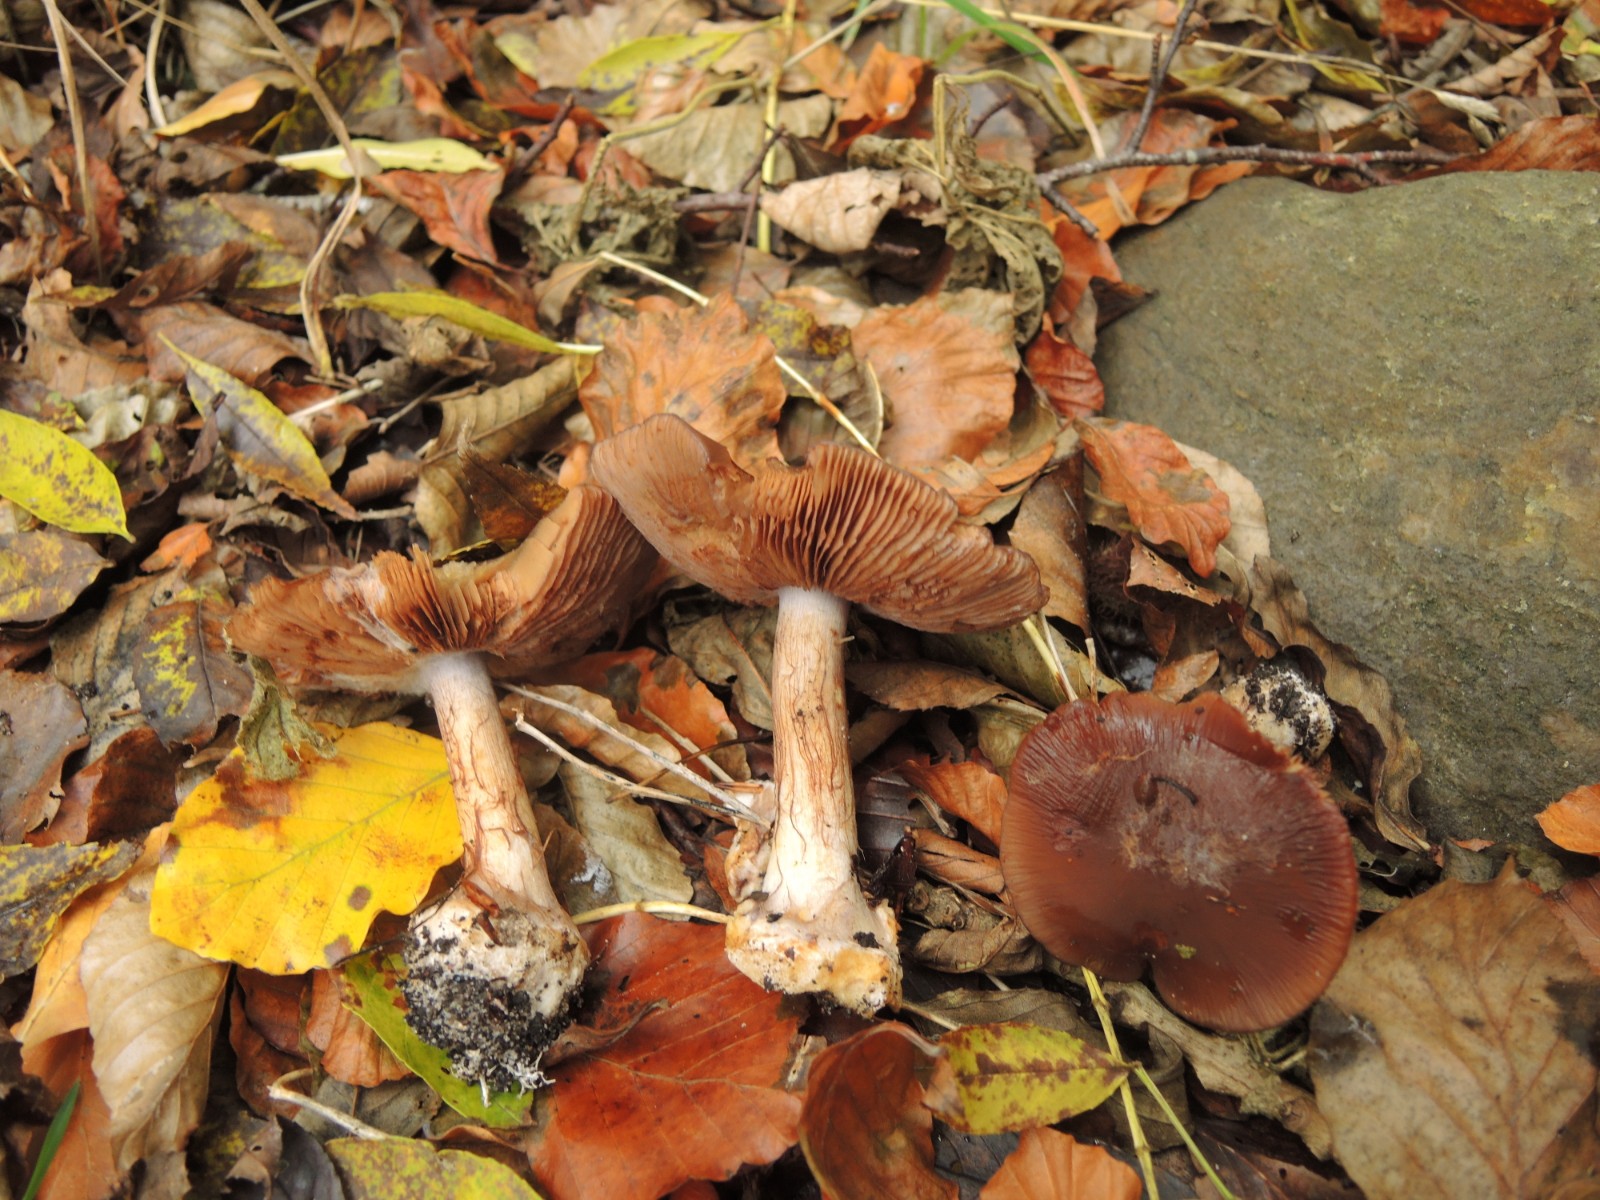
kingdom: Fungi
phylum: Basidiomycota
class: Agaricomycetes
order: Agaricales
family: Cortinariaceae
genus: Phlegmacium
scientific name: Phlegmacium viridocoeruleum
